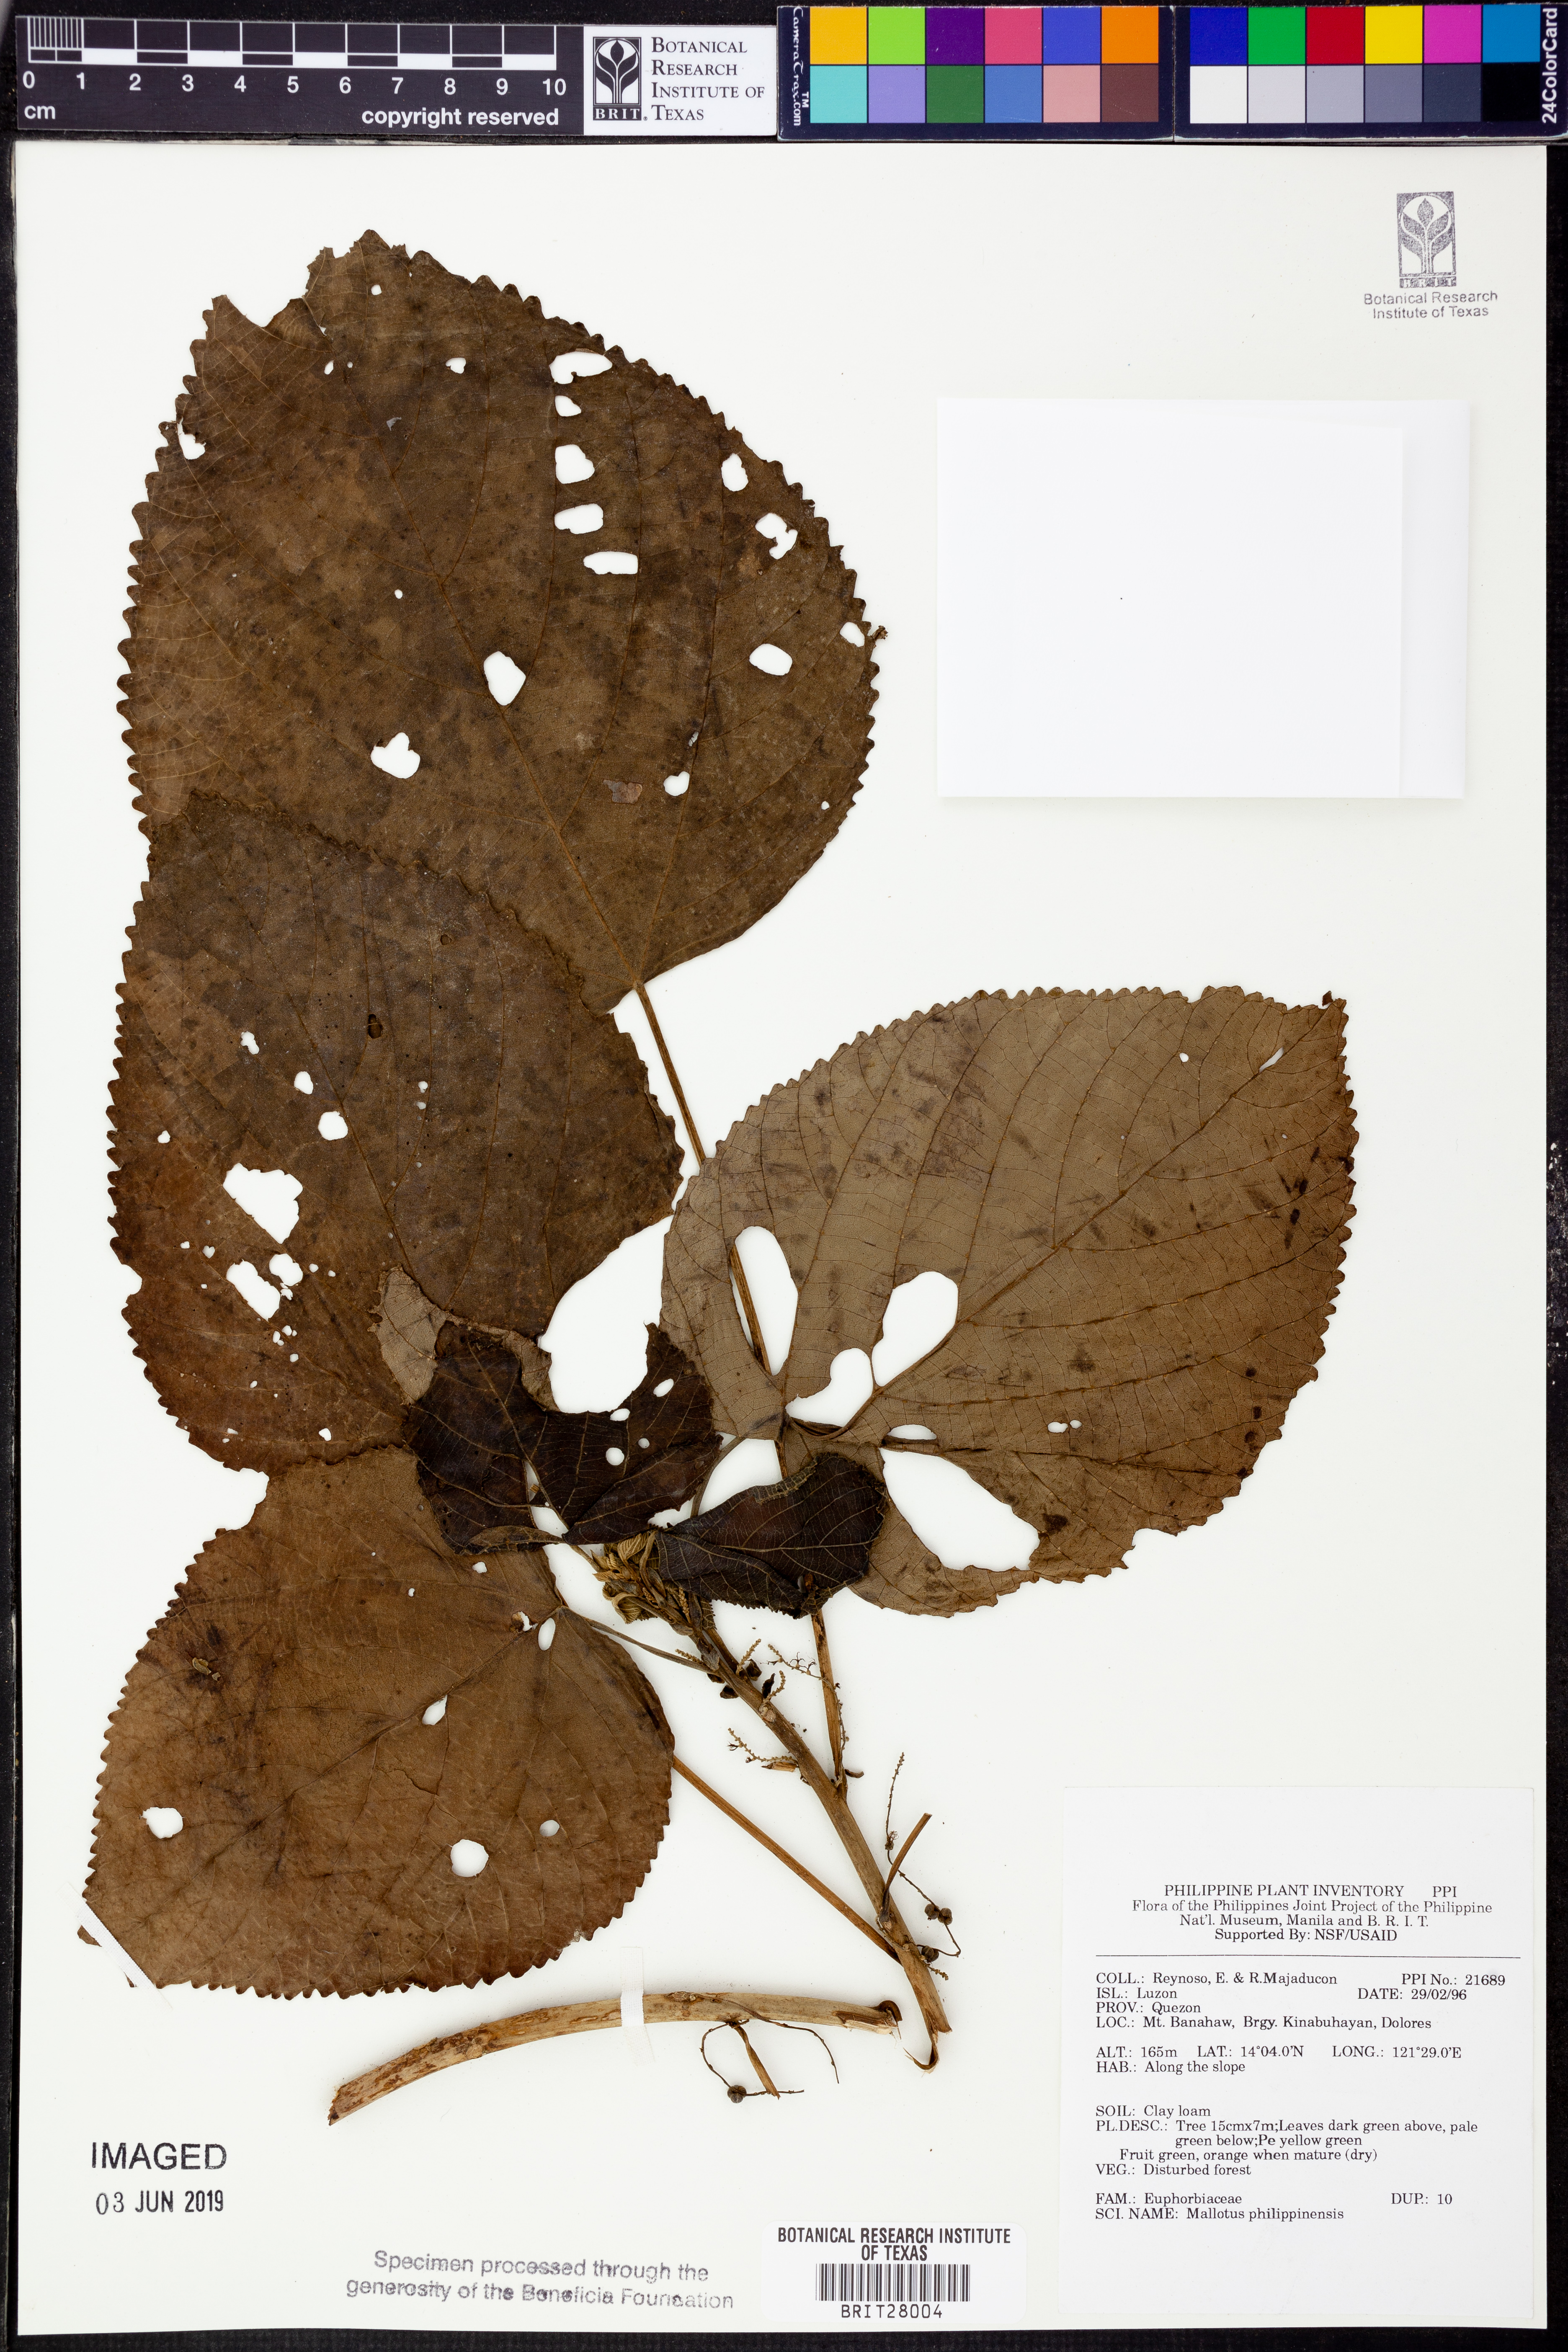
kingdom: Plantae
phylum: Tracheophyta
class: Magnoliopsida
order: Malpighiales
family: Euphorbiaceae
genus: Mallotus
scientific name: Mallotus philippensis
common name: Kamala tree
